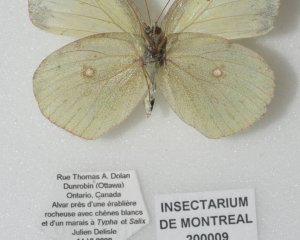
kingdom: Animalia
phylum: Arthropoda
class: Insecta
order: Lepidoptera
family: Pieridae
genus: Colias
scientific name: Colias philodice
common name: Clouded Sulphur
